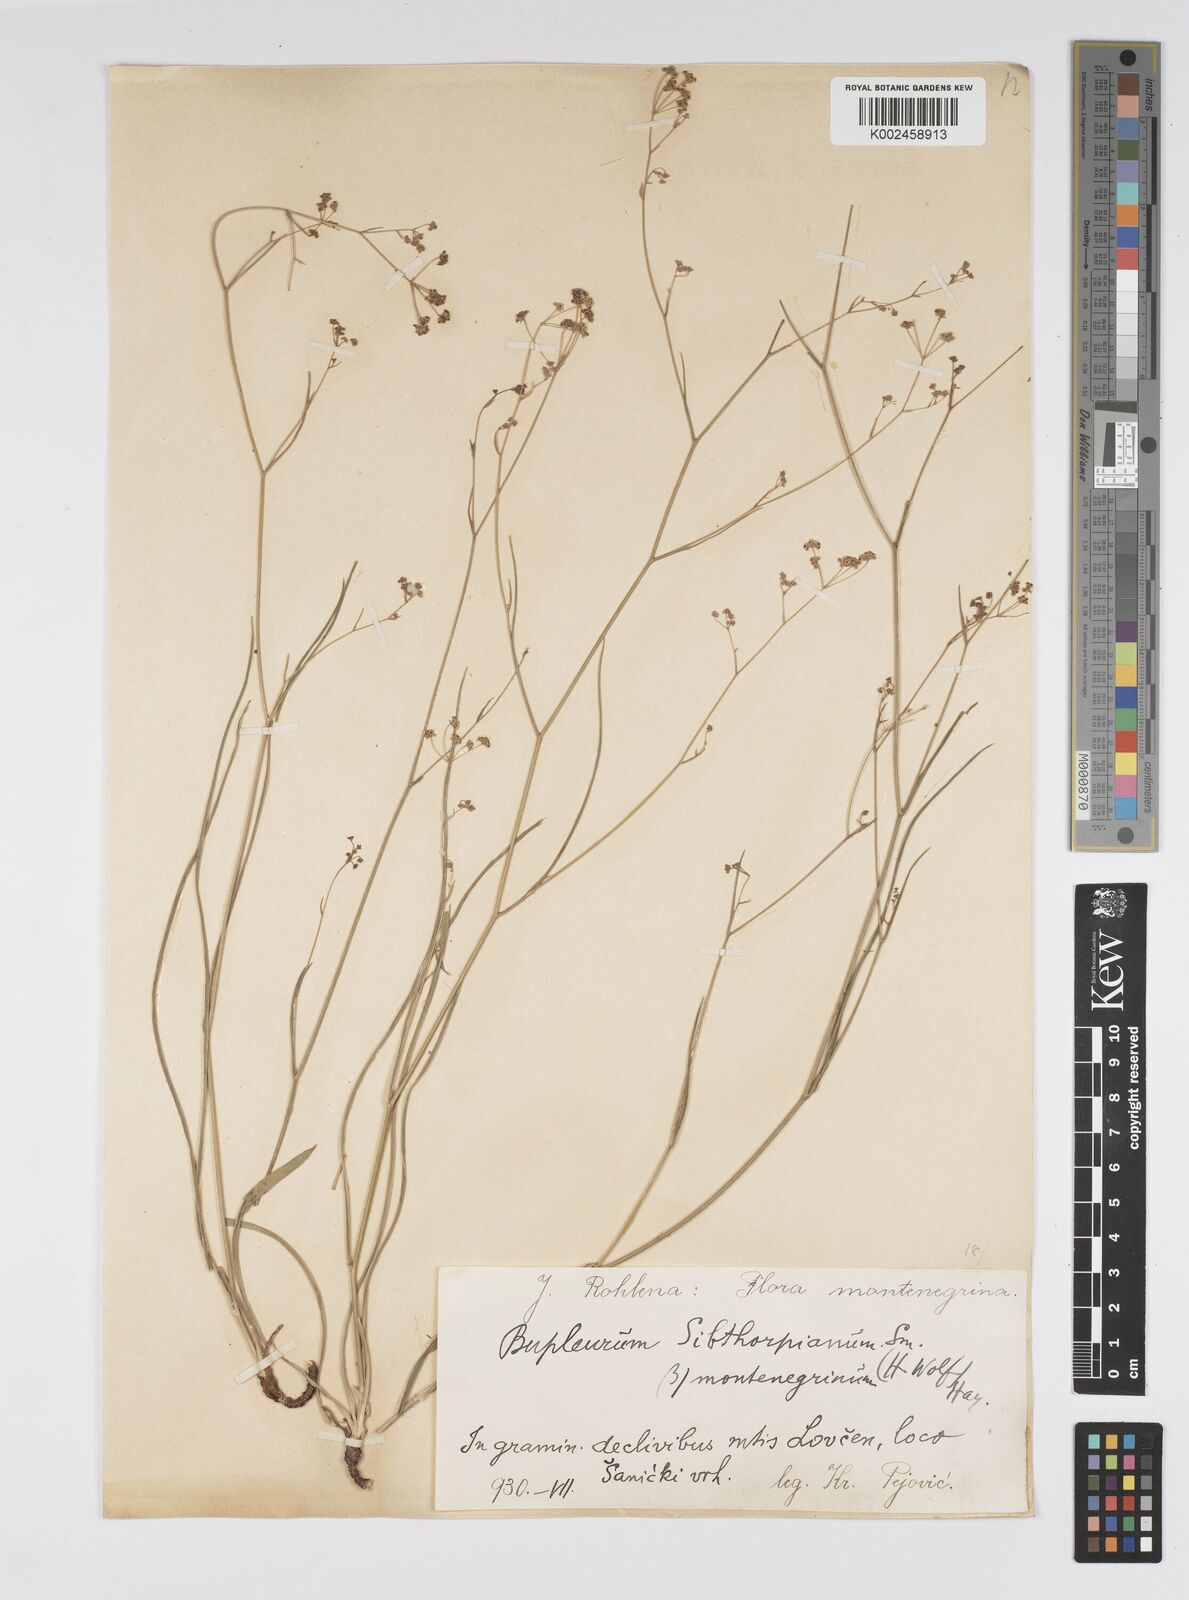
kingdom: Plantae
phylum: Tracheophyta
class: Magnoliopsida
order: Apiales
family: Apiaceae
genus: Bupleurum
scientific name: Bupleurum falcatum
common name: Sickle-leaved hare's-ear
